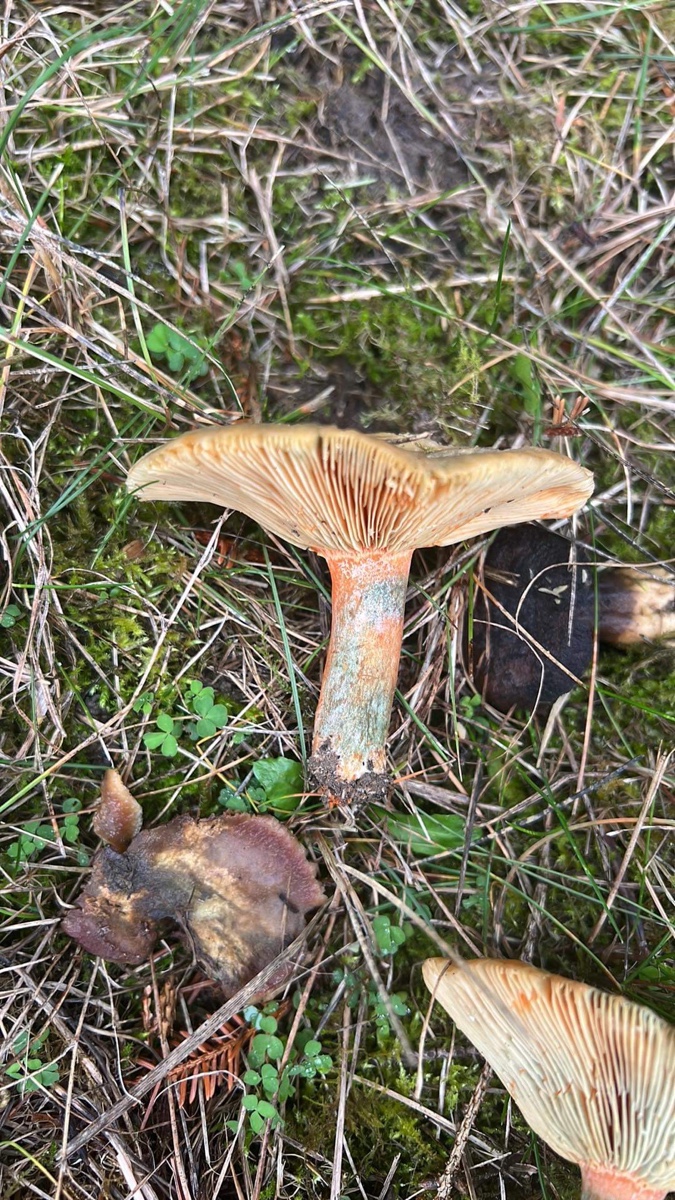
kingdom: Fungi
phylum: Basidiomycota
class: Agaricomycetes
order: Russulales
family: Russulaceae
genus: Lactarius
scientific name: Lactarius deterrimus
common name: gran-mælkehat
